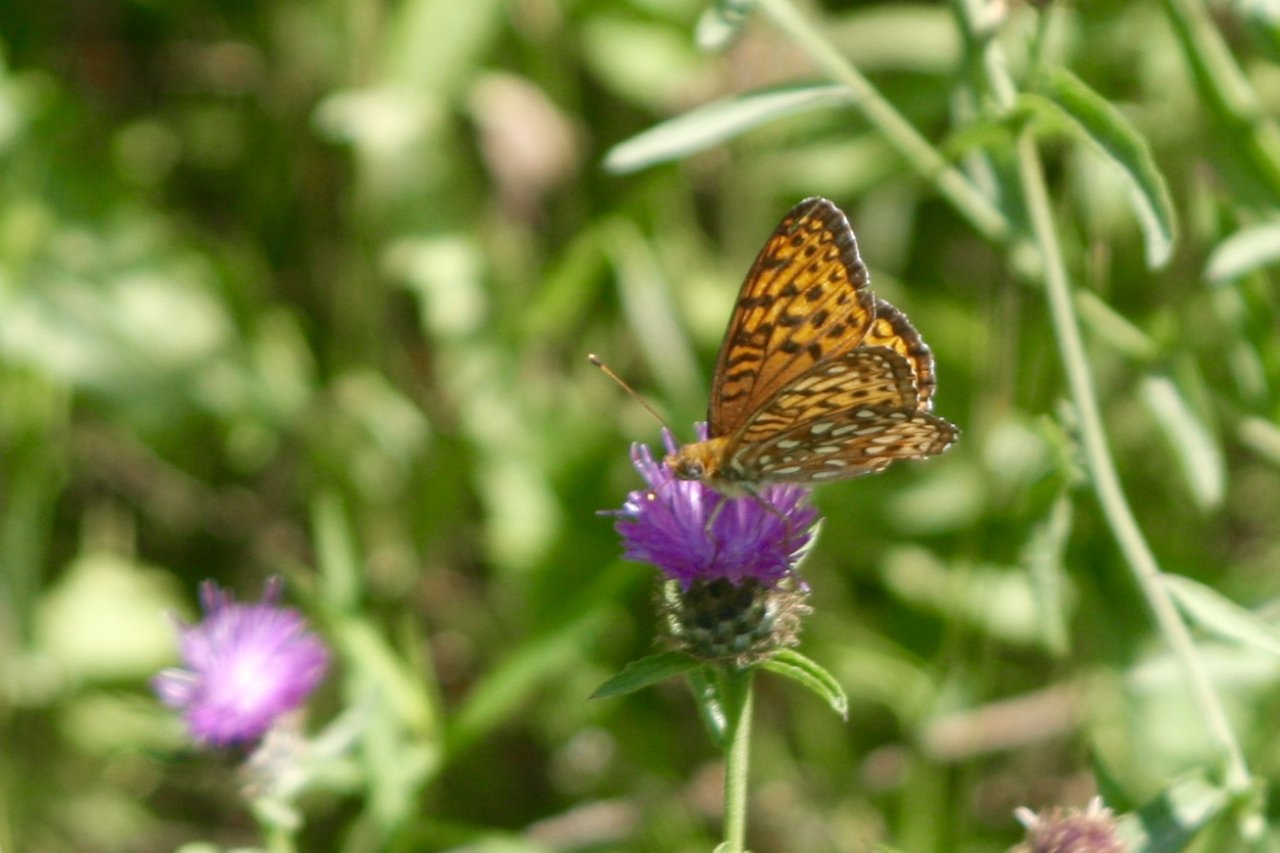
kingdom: Animalia
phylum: Arthropoda
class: Insecta
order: Lepidoptera
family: Nymphalidae
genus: Speyeria
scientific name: Speyeria cybele
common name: Great Spangled Fritillary
